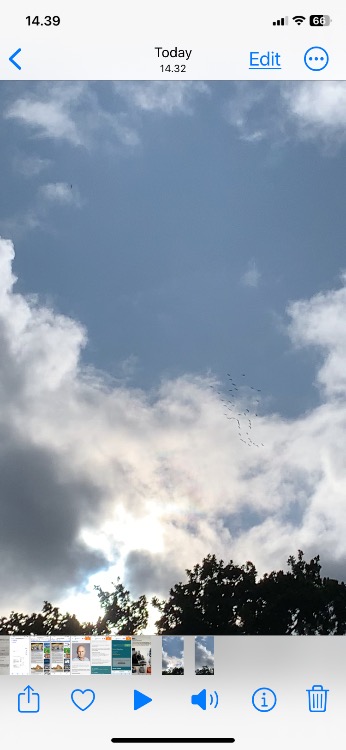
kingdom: Animalia
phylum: Chordata
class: Aves
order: Gruiformes
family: Gruidae
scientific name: Gruidae
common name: Traner
